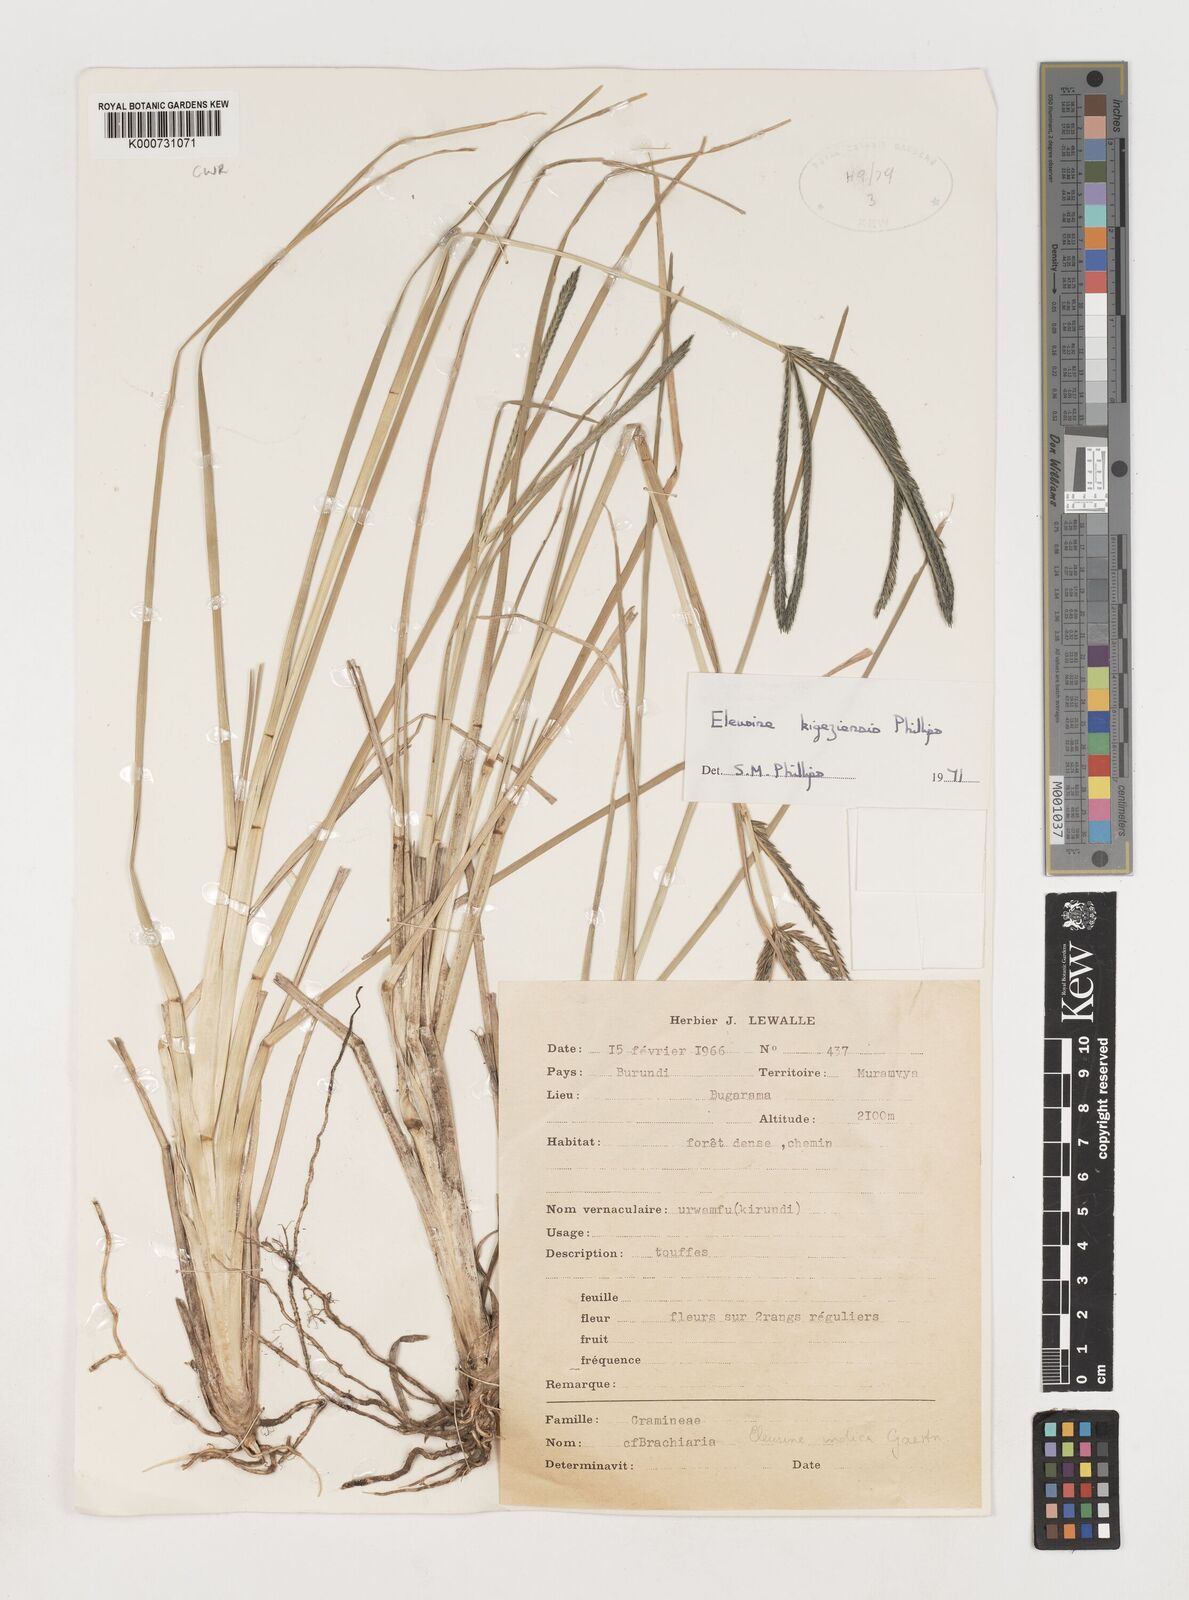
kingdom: Plantae
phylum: Tracheophyta
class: Liliopsida
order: Poales
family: Poaceae
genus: Eleusine
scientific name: Eleusine kigeziensis
